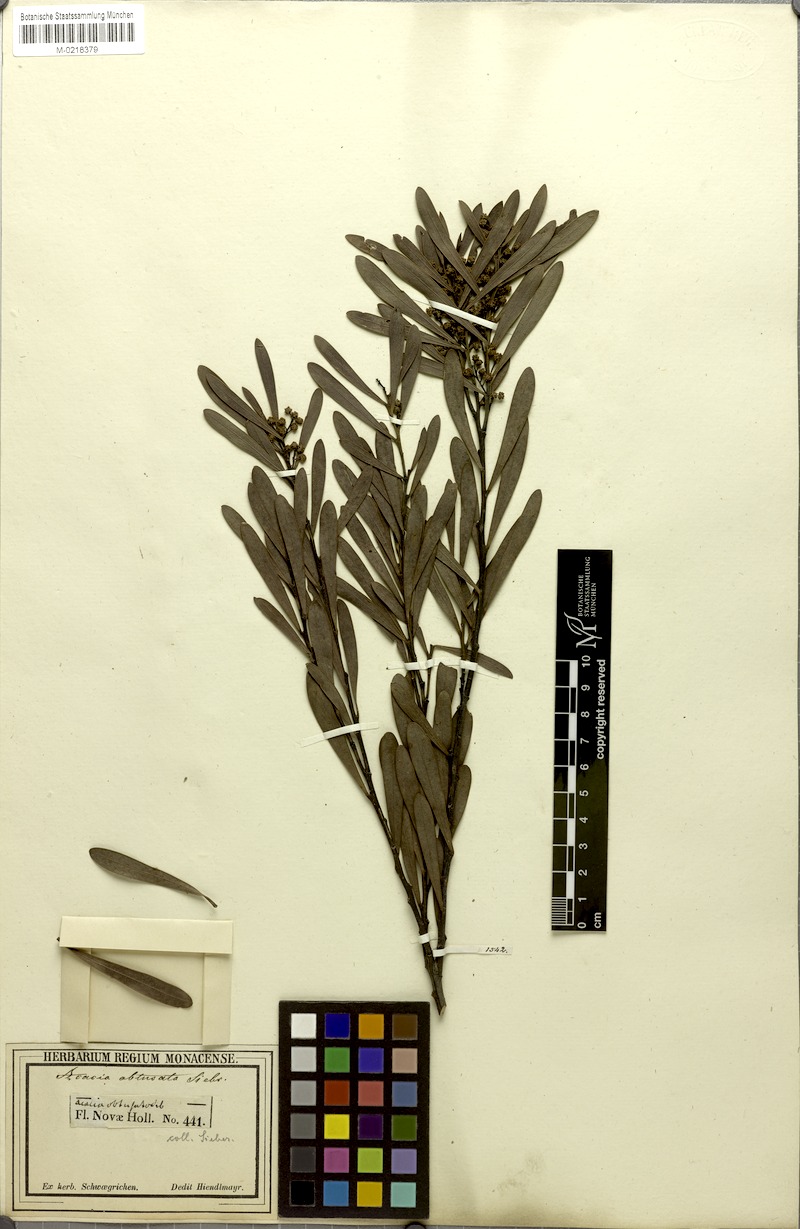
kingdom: Plantae
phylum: Tracheophyta
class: Magnoliopsida
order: Fabales
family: Fabaceae
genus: Acacia
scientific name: Acacia obtusata
